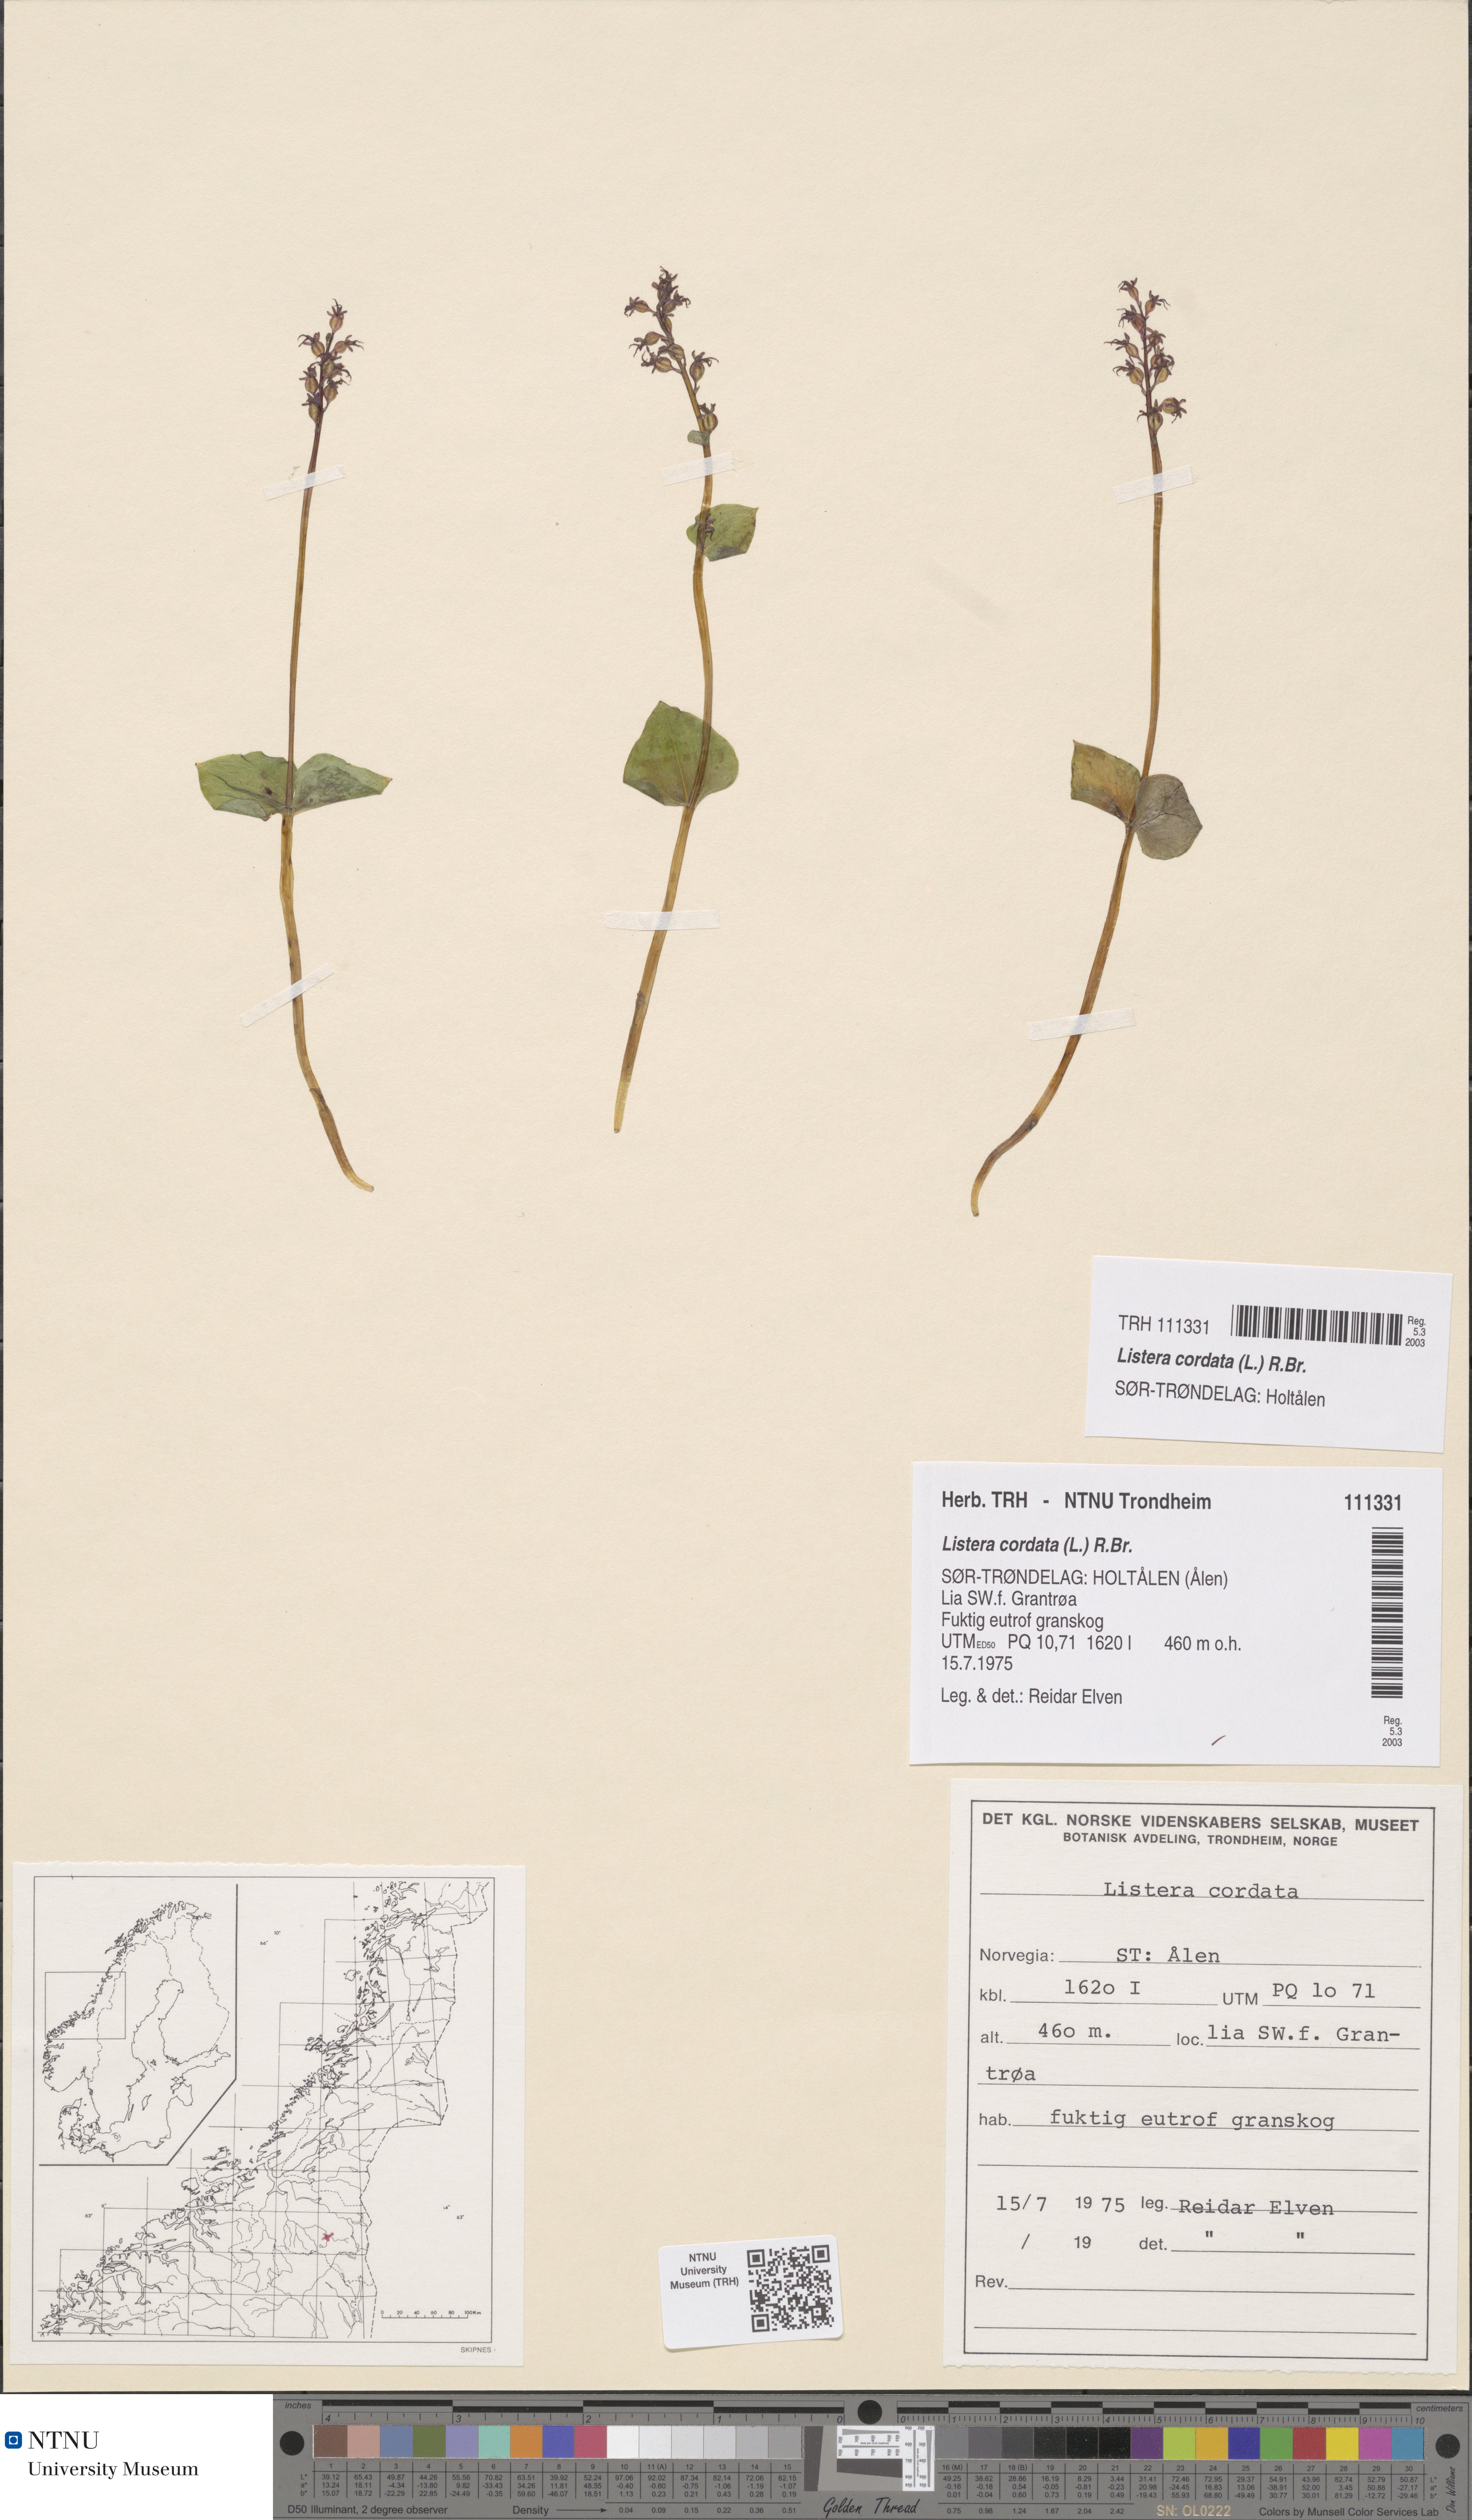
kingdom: Plantae
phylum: Tracheophyta
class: Liliopsida
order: Asparagales
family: Orchidaceae
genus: Neottia
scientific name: Neottia cordata
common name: Lesser twayblade
